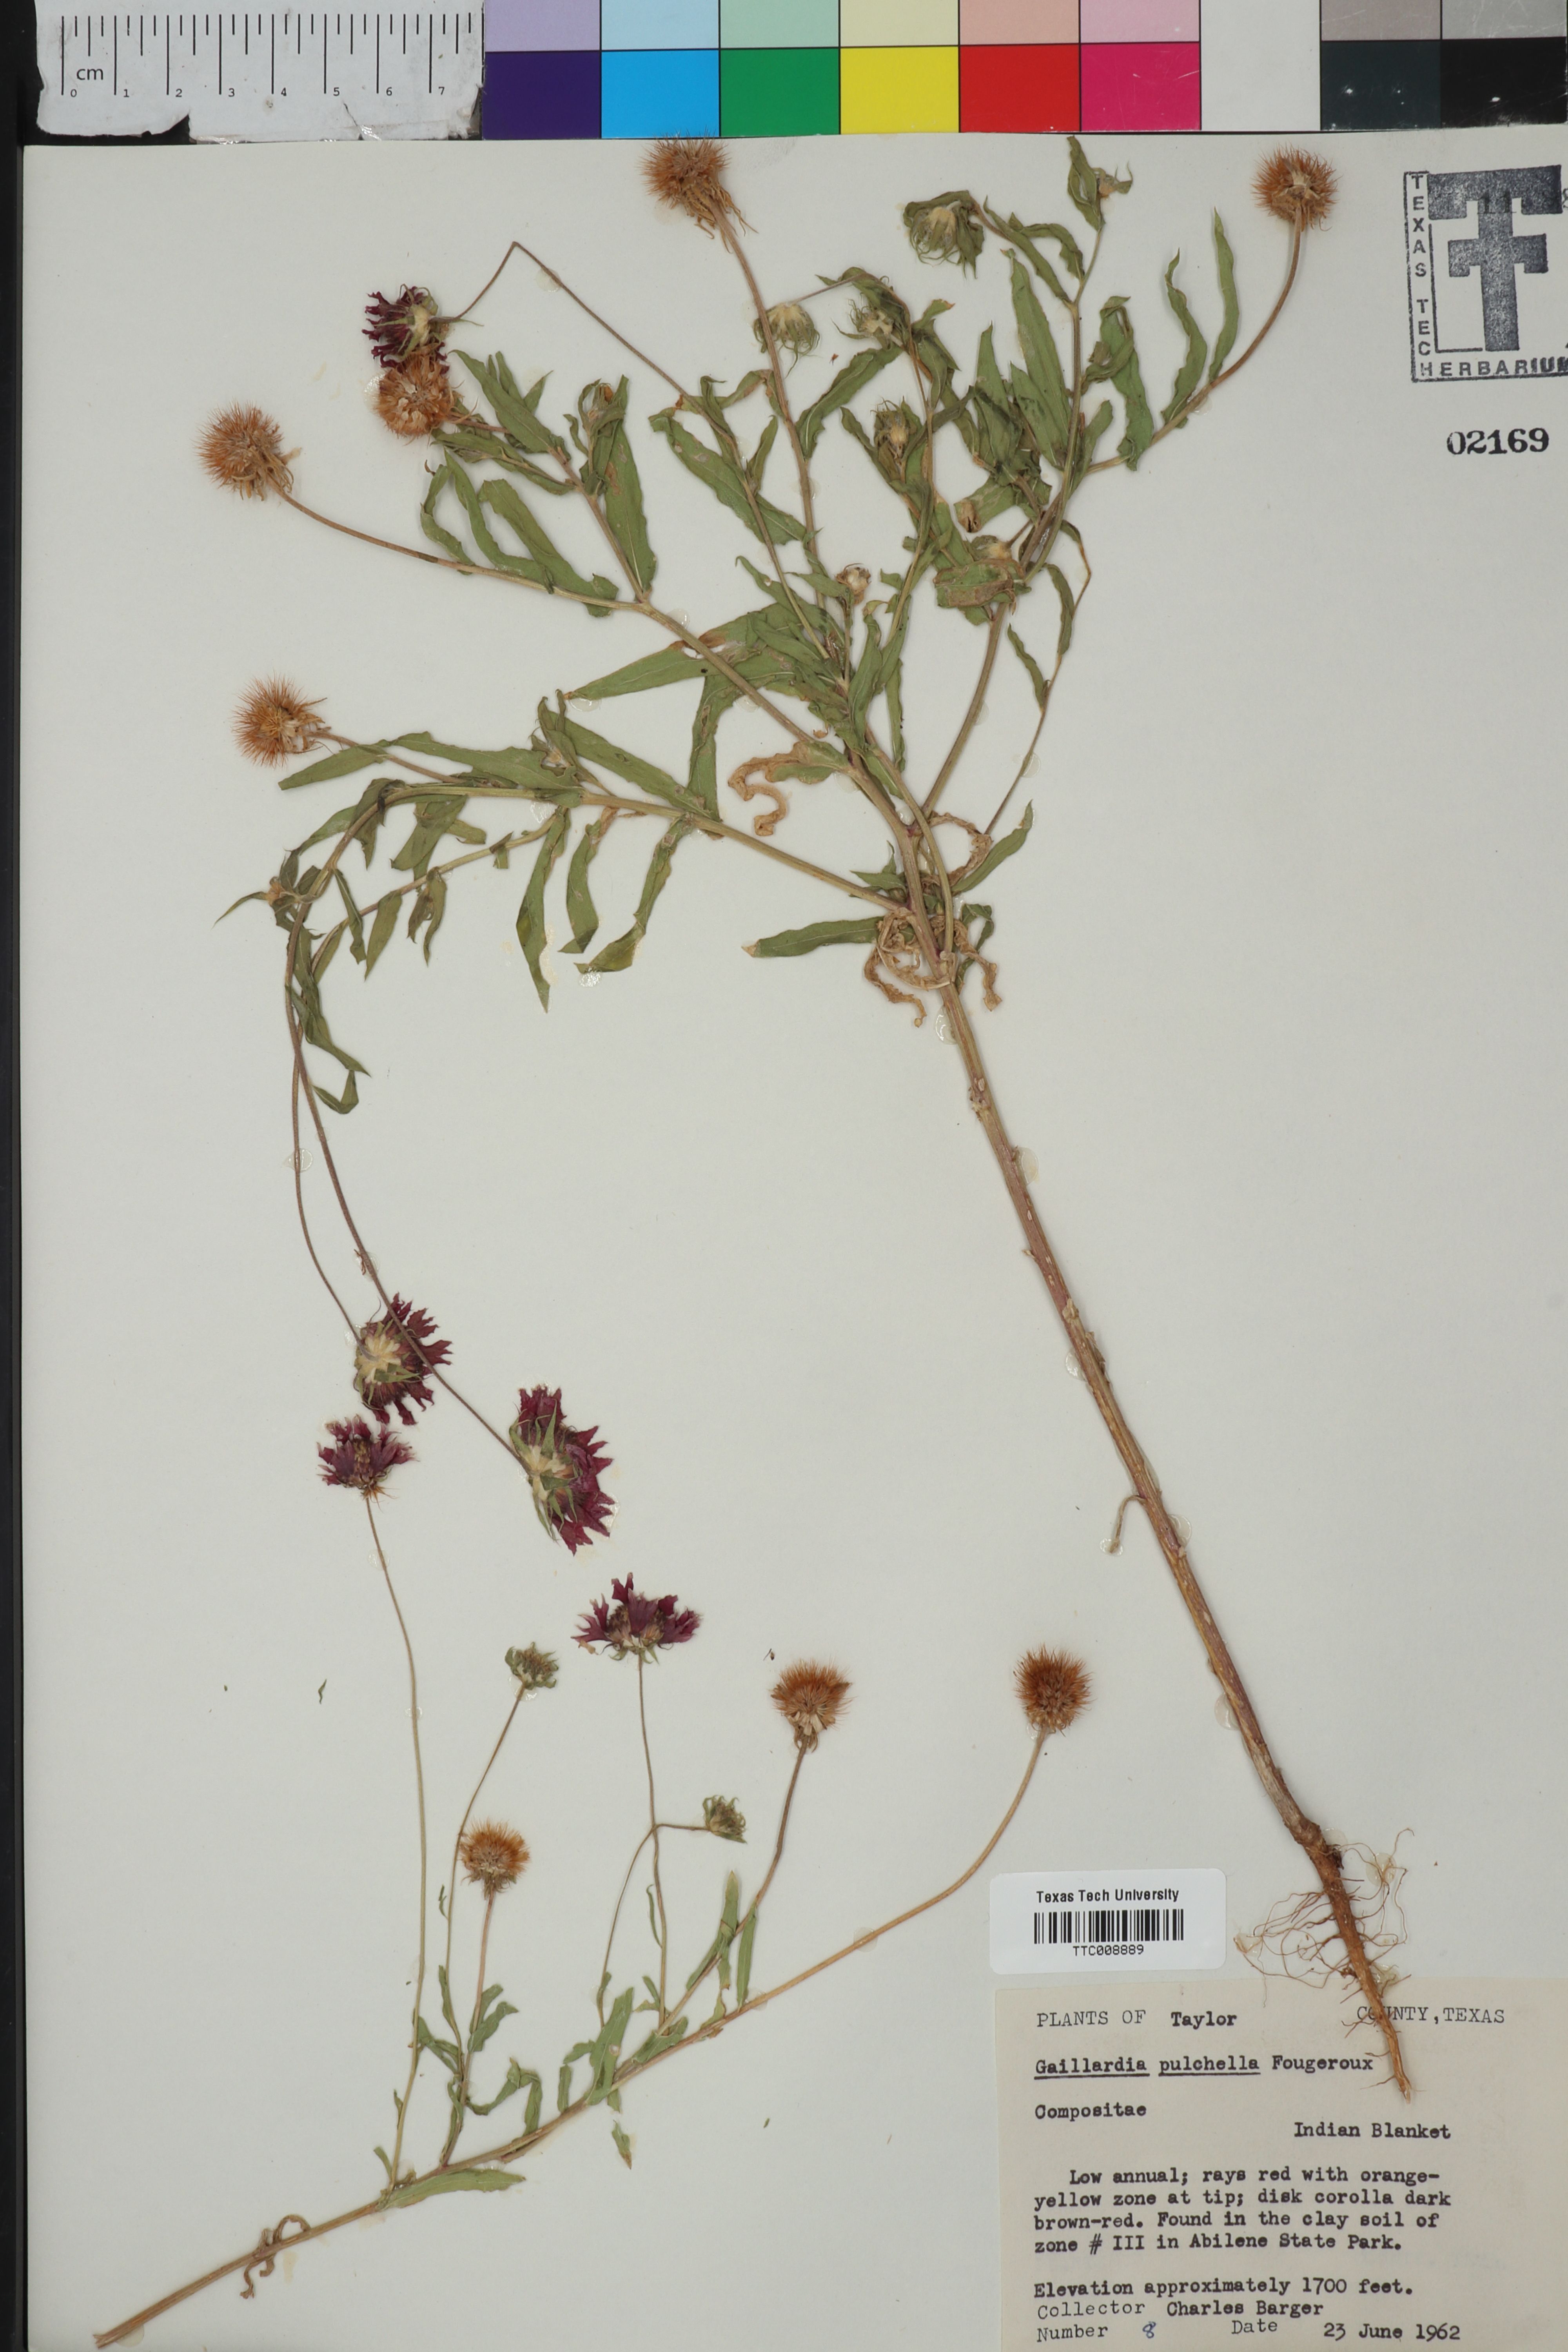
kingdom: Plantae
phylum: Tracheophyta
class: Magnoliopsida
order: Asterales
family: Asteraceae
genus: Gaillardia
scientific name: Gaillardia pulchella
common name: Firewheel
